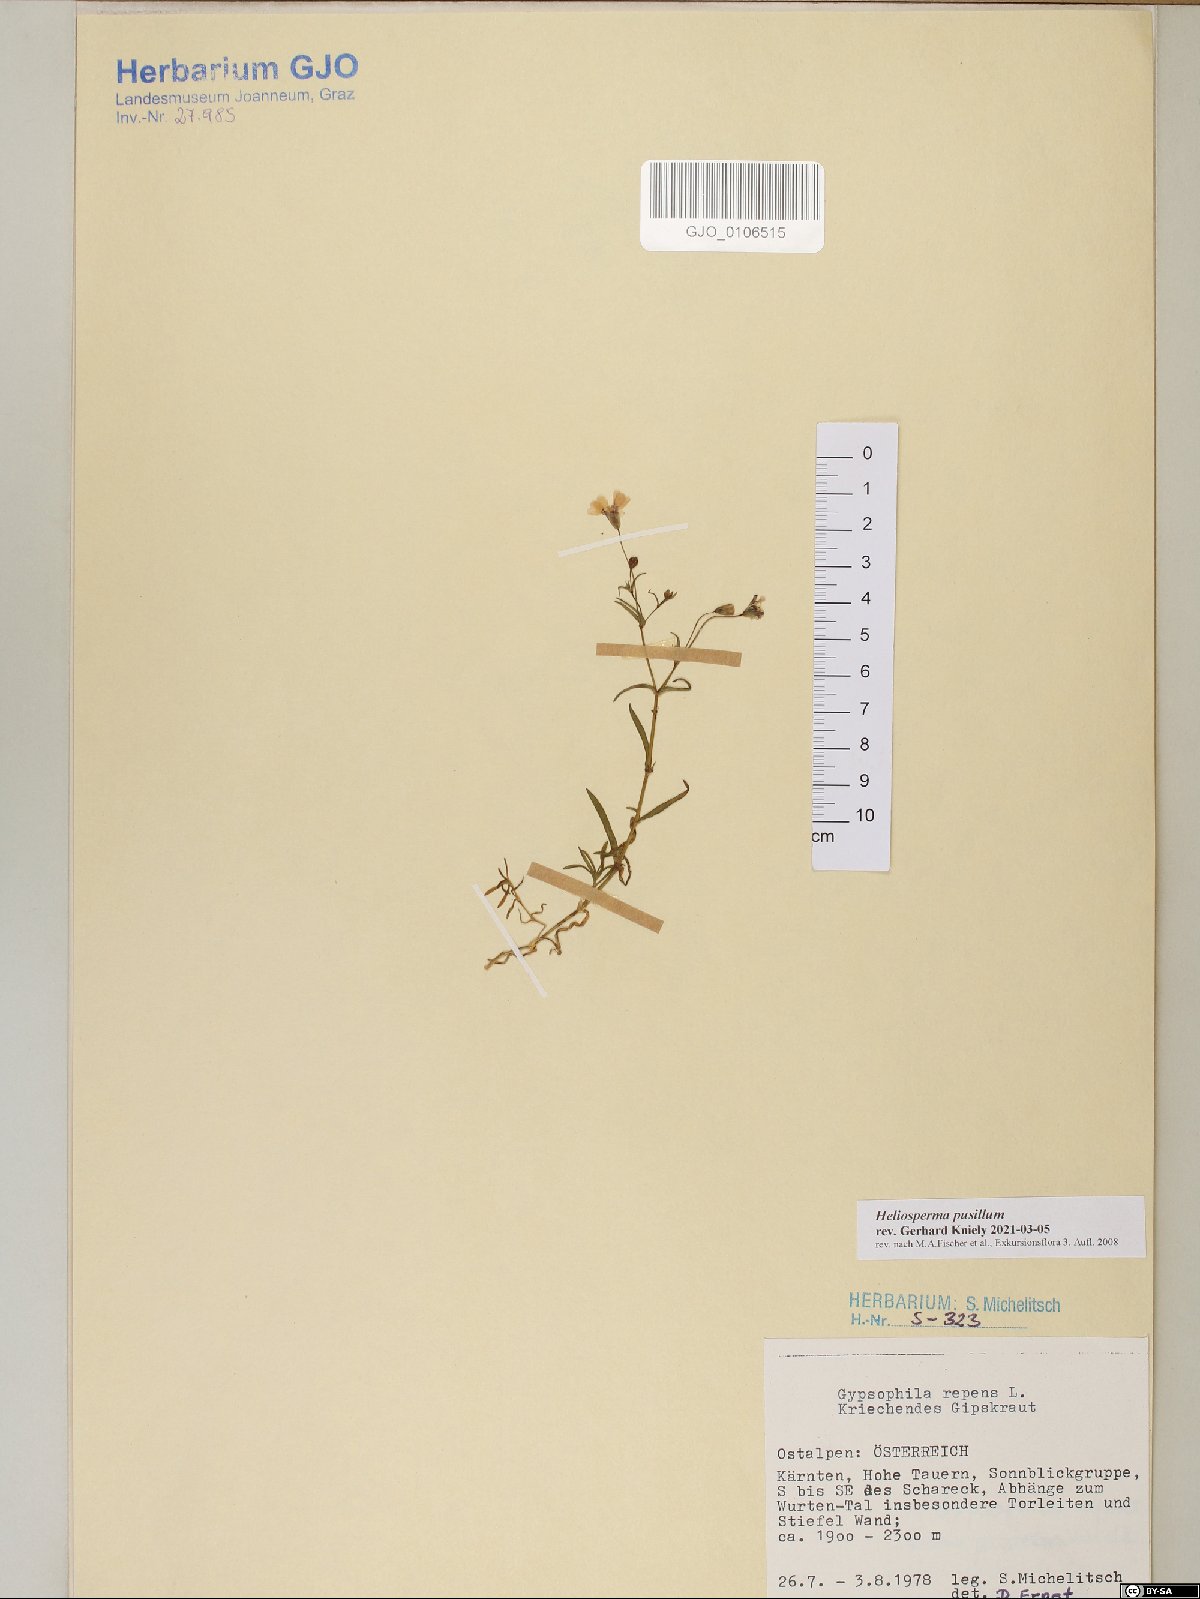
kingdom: Plantae
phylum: Tracheophyta
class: Magnoliopsida
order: Caryophyllales
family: Caryophyllaceae
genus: Heliosperma
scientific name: Heliosperma pusillum
